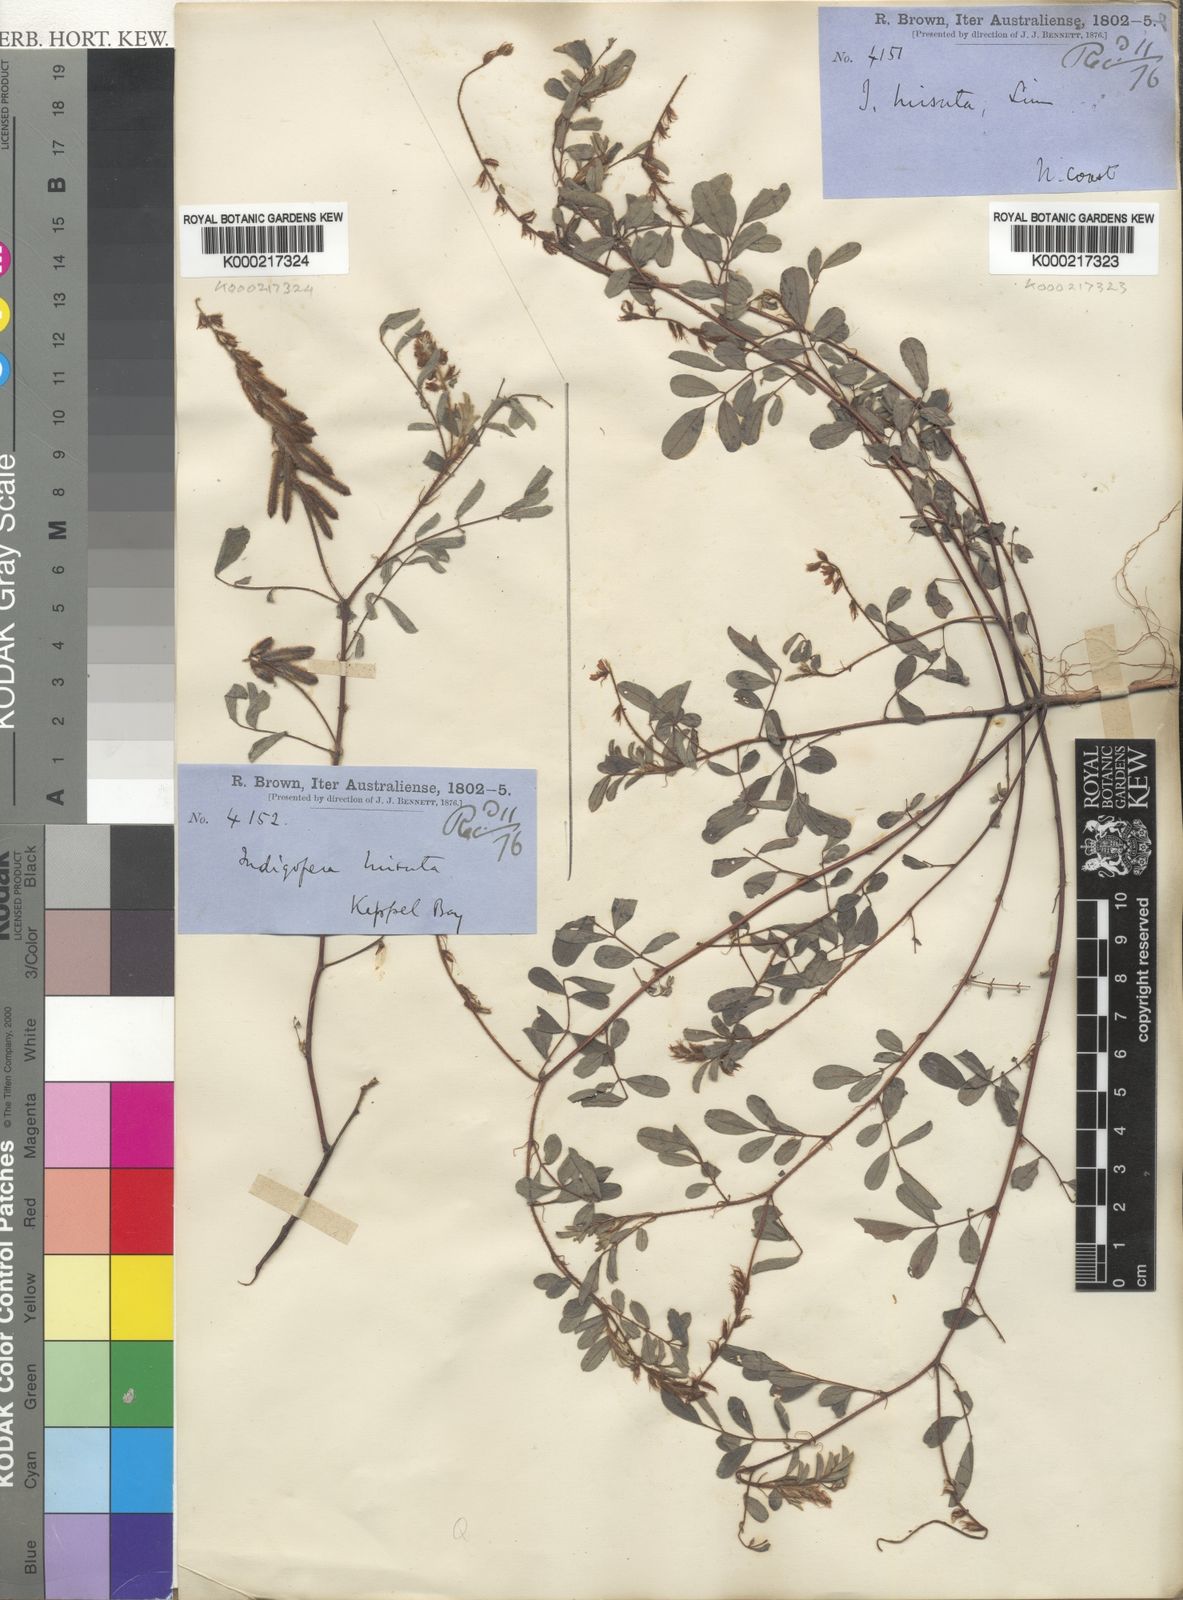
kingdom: Plantae
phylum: Tracheophyta
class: Magnoliopsida
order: Fabales
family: Fabaceae
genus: Indigofera
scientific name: Indigofera hirsuta
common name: Hairy indigo
